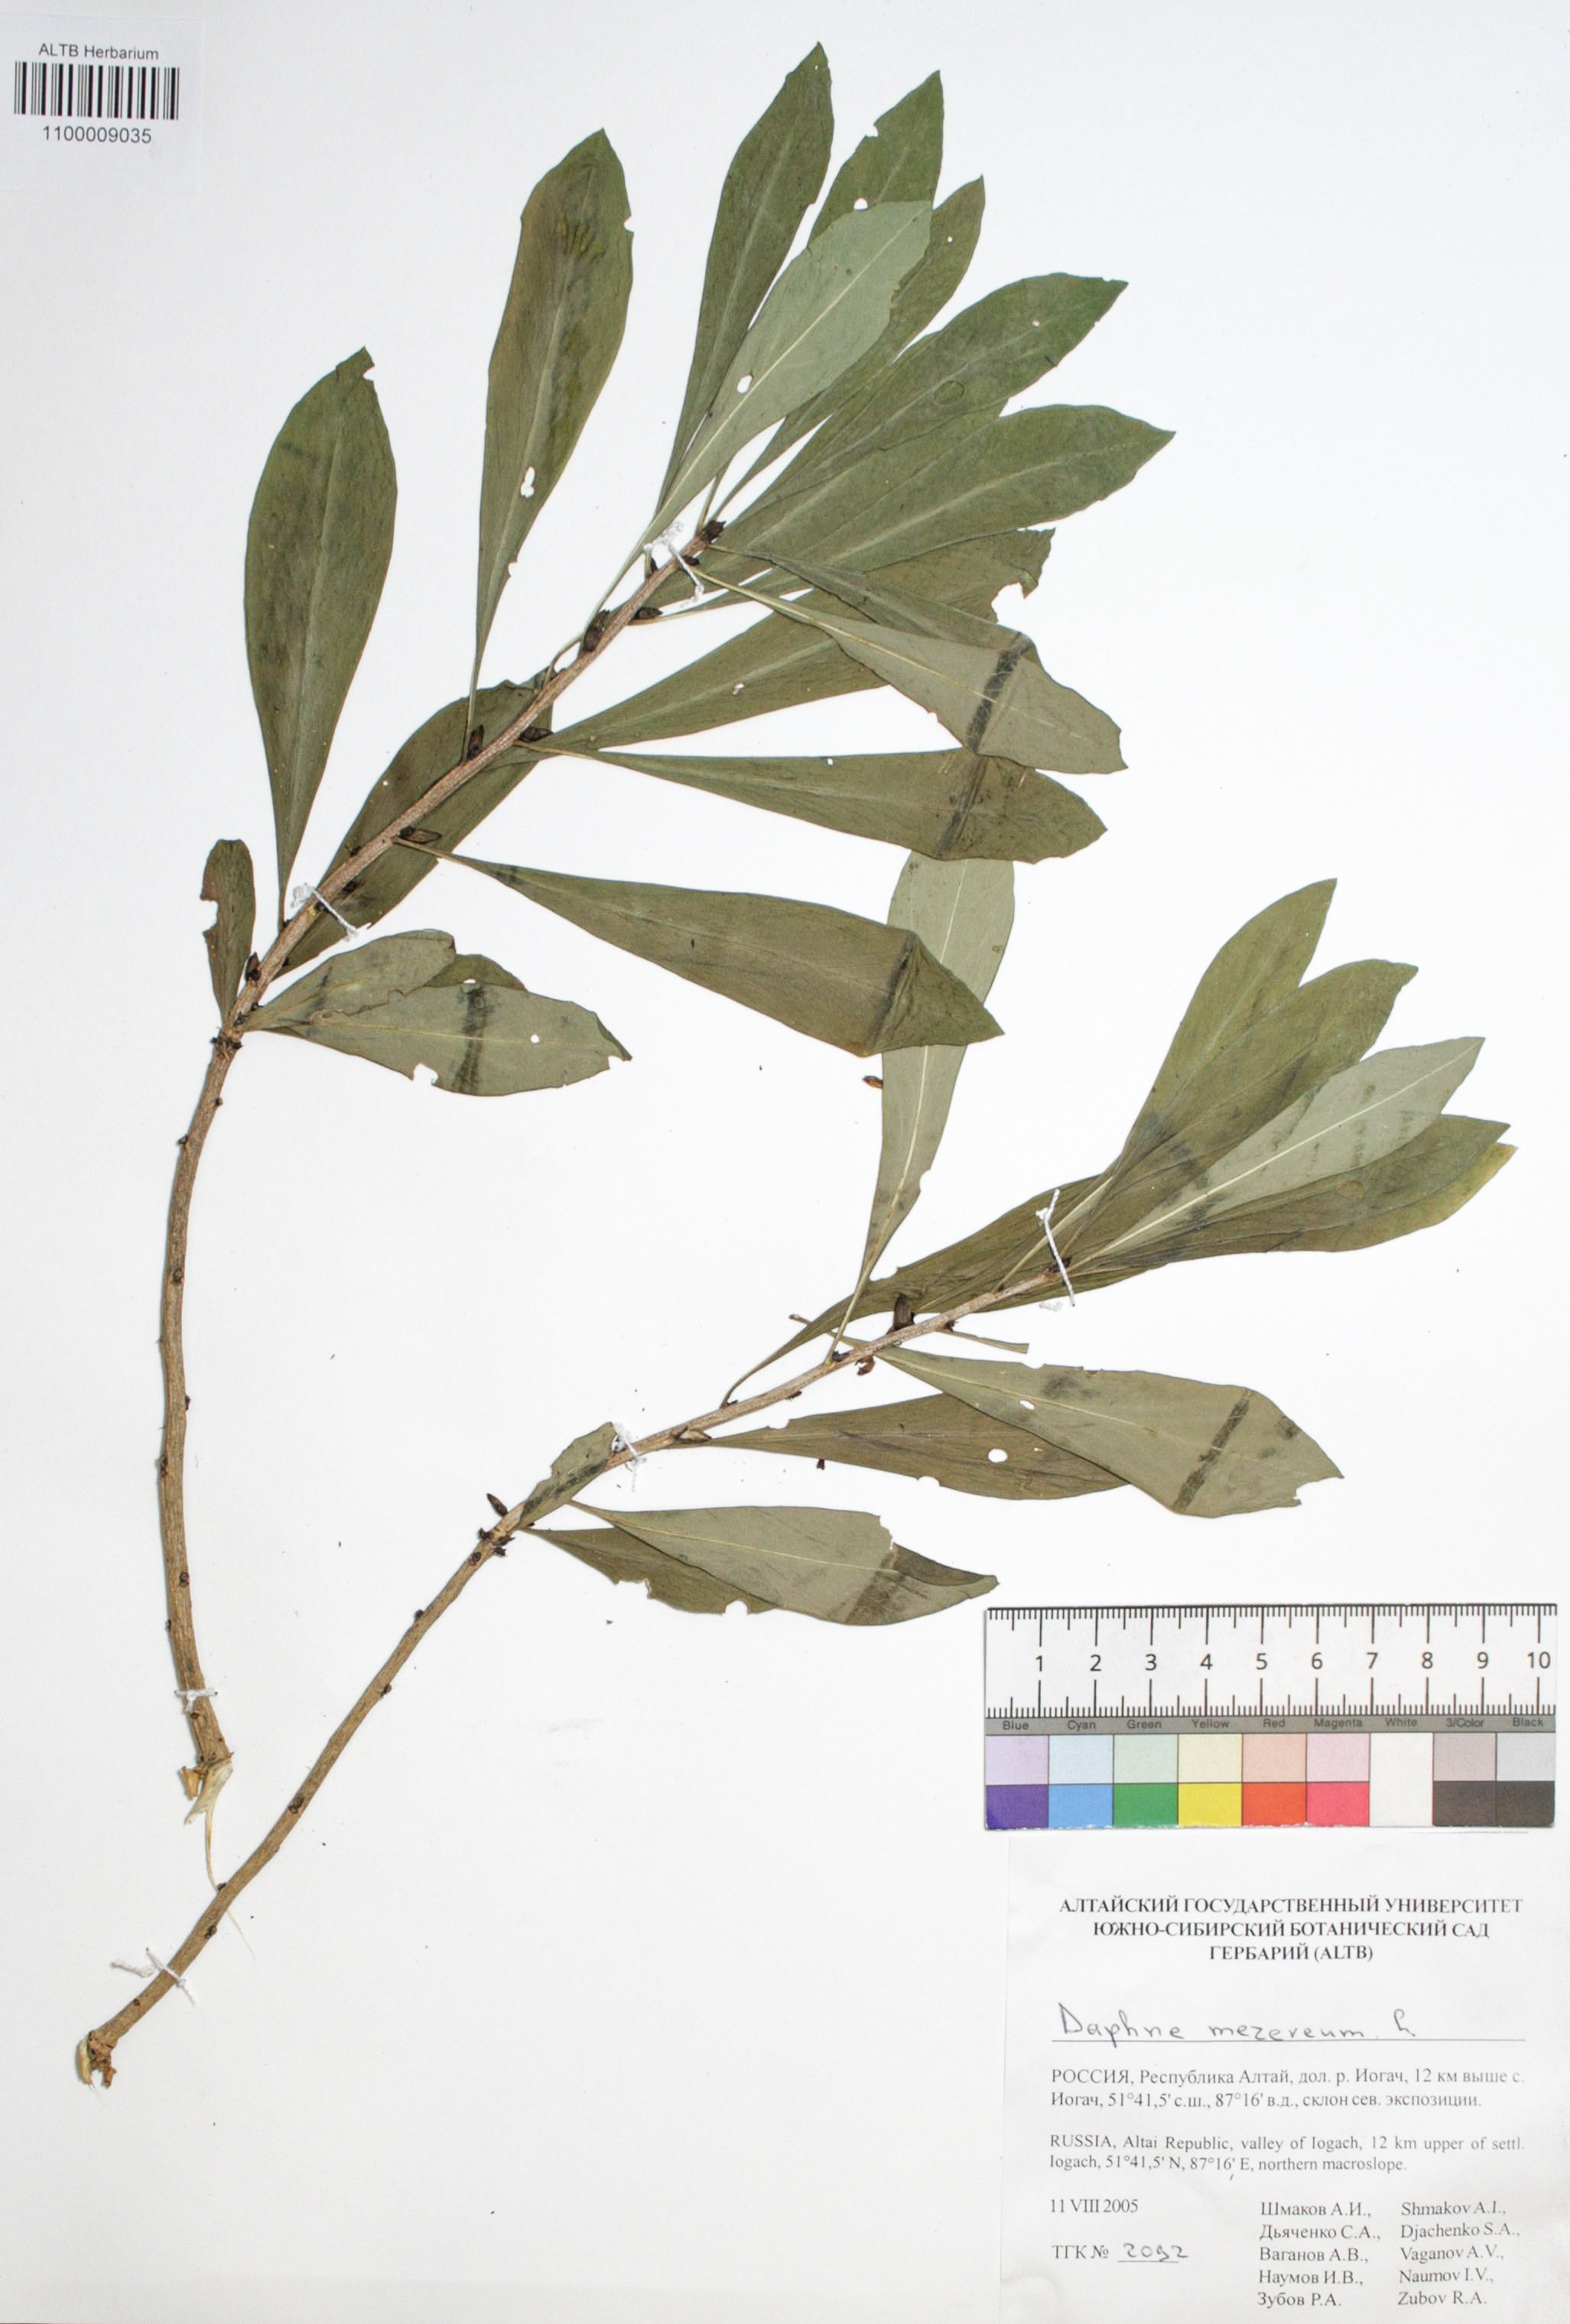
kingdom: Plantae
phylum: Tracheophyta
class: Magnoliopsida
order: Malvales
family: Thymelaeaceae
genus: Daphne
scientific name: Daphne mezereum
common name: Mezereon
